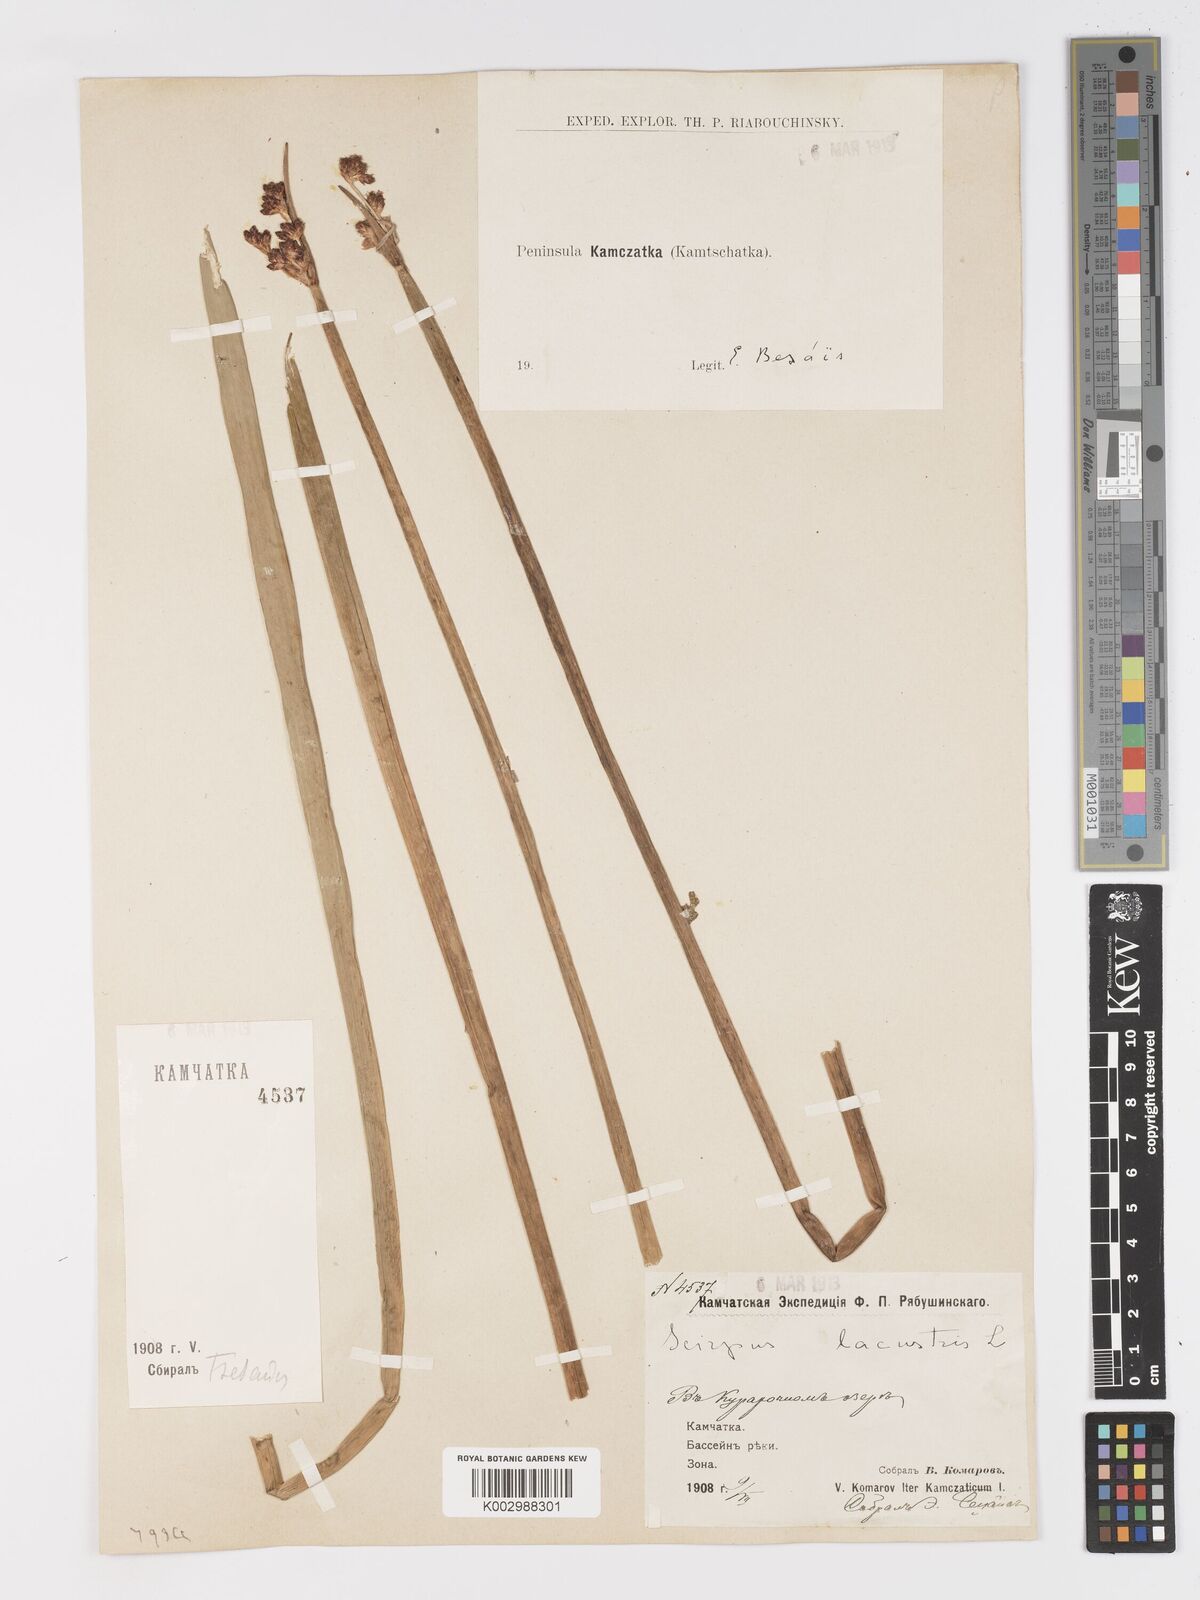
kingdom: Plantae
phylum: Tracheophyta
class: Liliopsida
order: Poales
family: Cyperaceae
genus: Schoenoplectus
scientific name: Schoenoplectus lacustris
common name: Common club-rush
